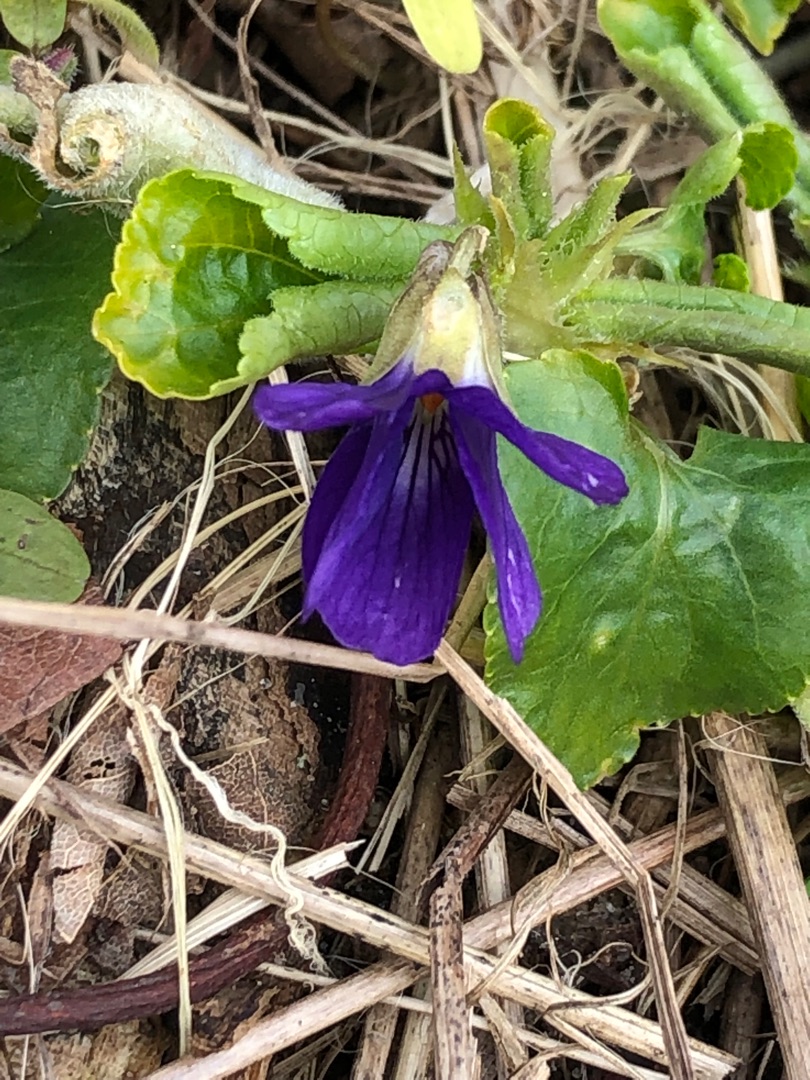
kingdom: Plantae
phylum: Tracheophyta
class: Magnoliopsida
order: Malpighiales
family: Violaceae
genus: Viola
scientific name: Viola odorata
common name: Marts-viol
